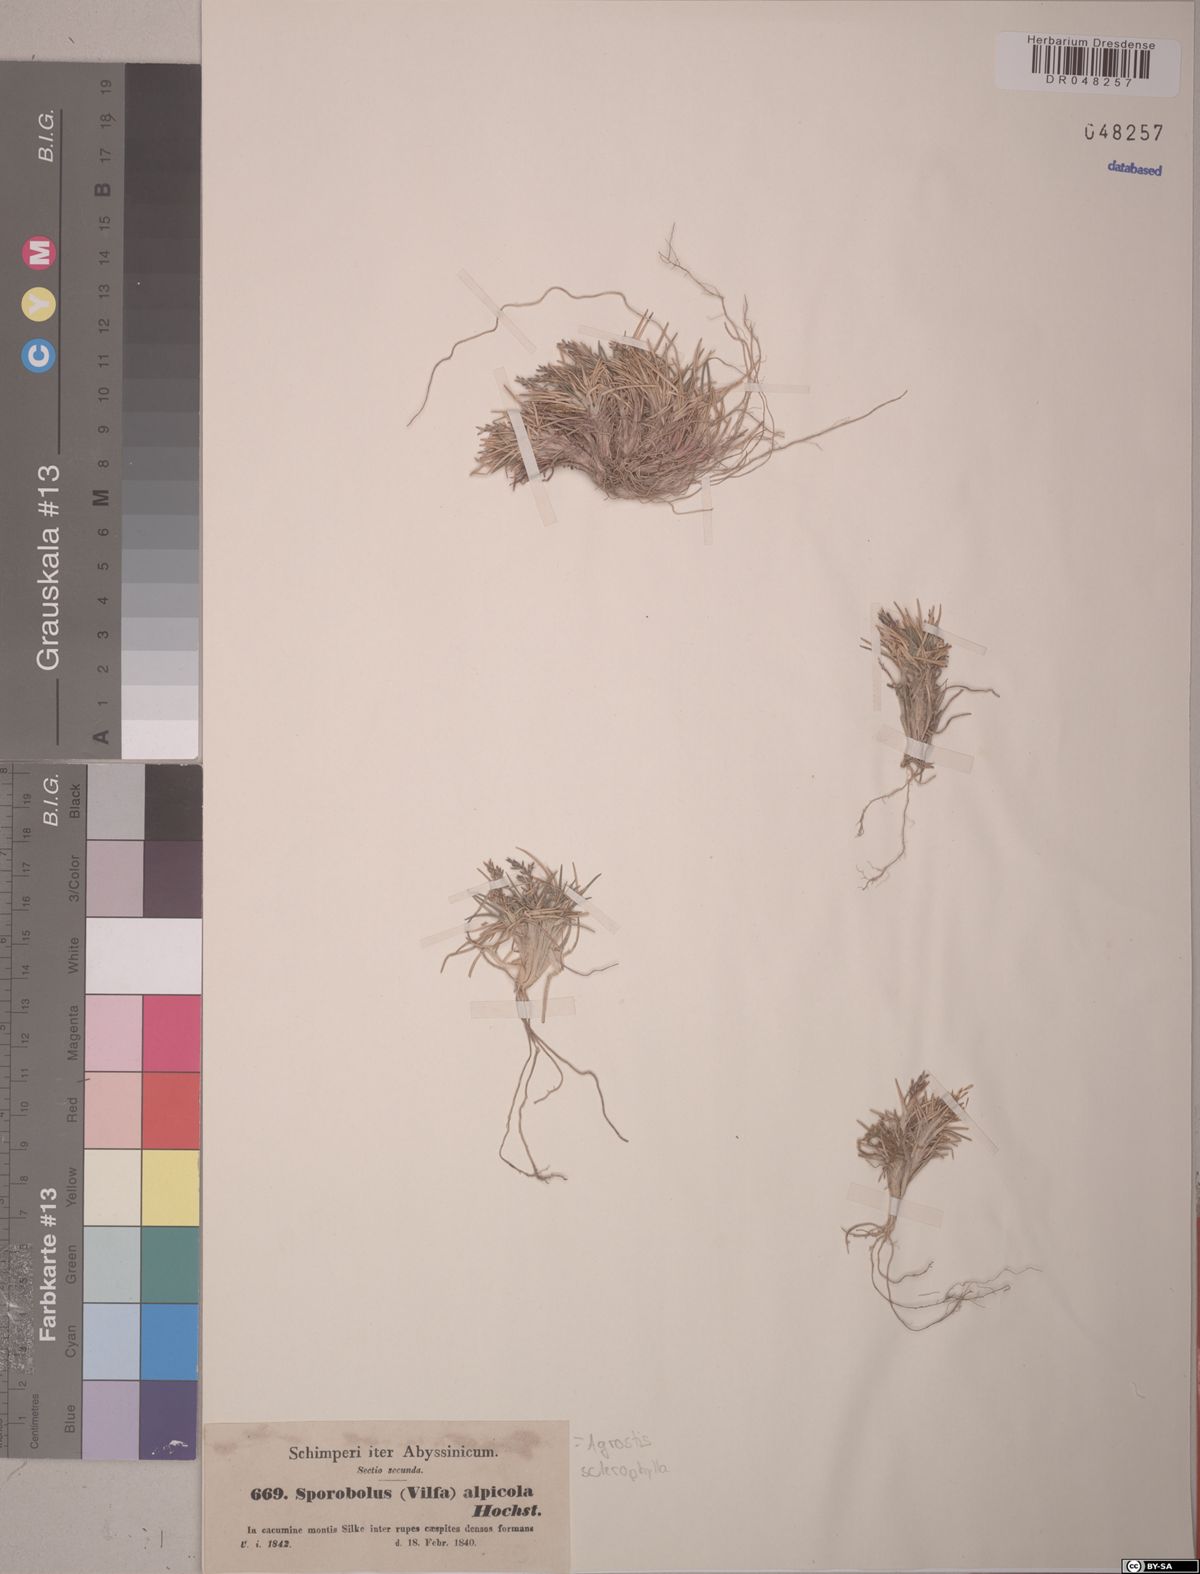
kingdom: Plantae
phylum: Tracheophyta
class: Liliopsida
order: Poales
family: Poaceae
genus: Agrostis
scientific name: Agrostis sclerophylla
